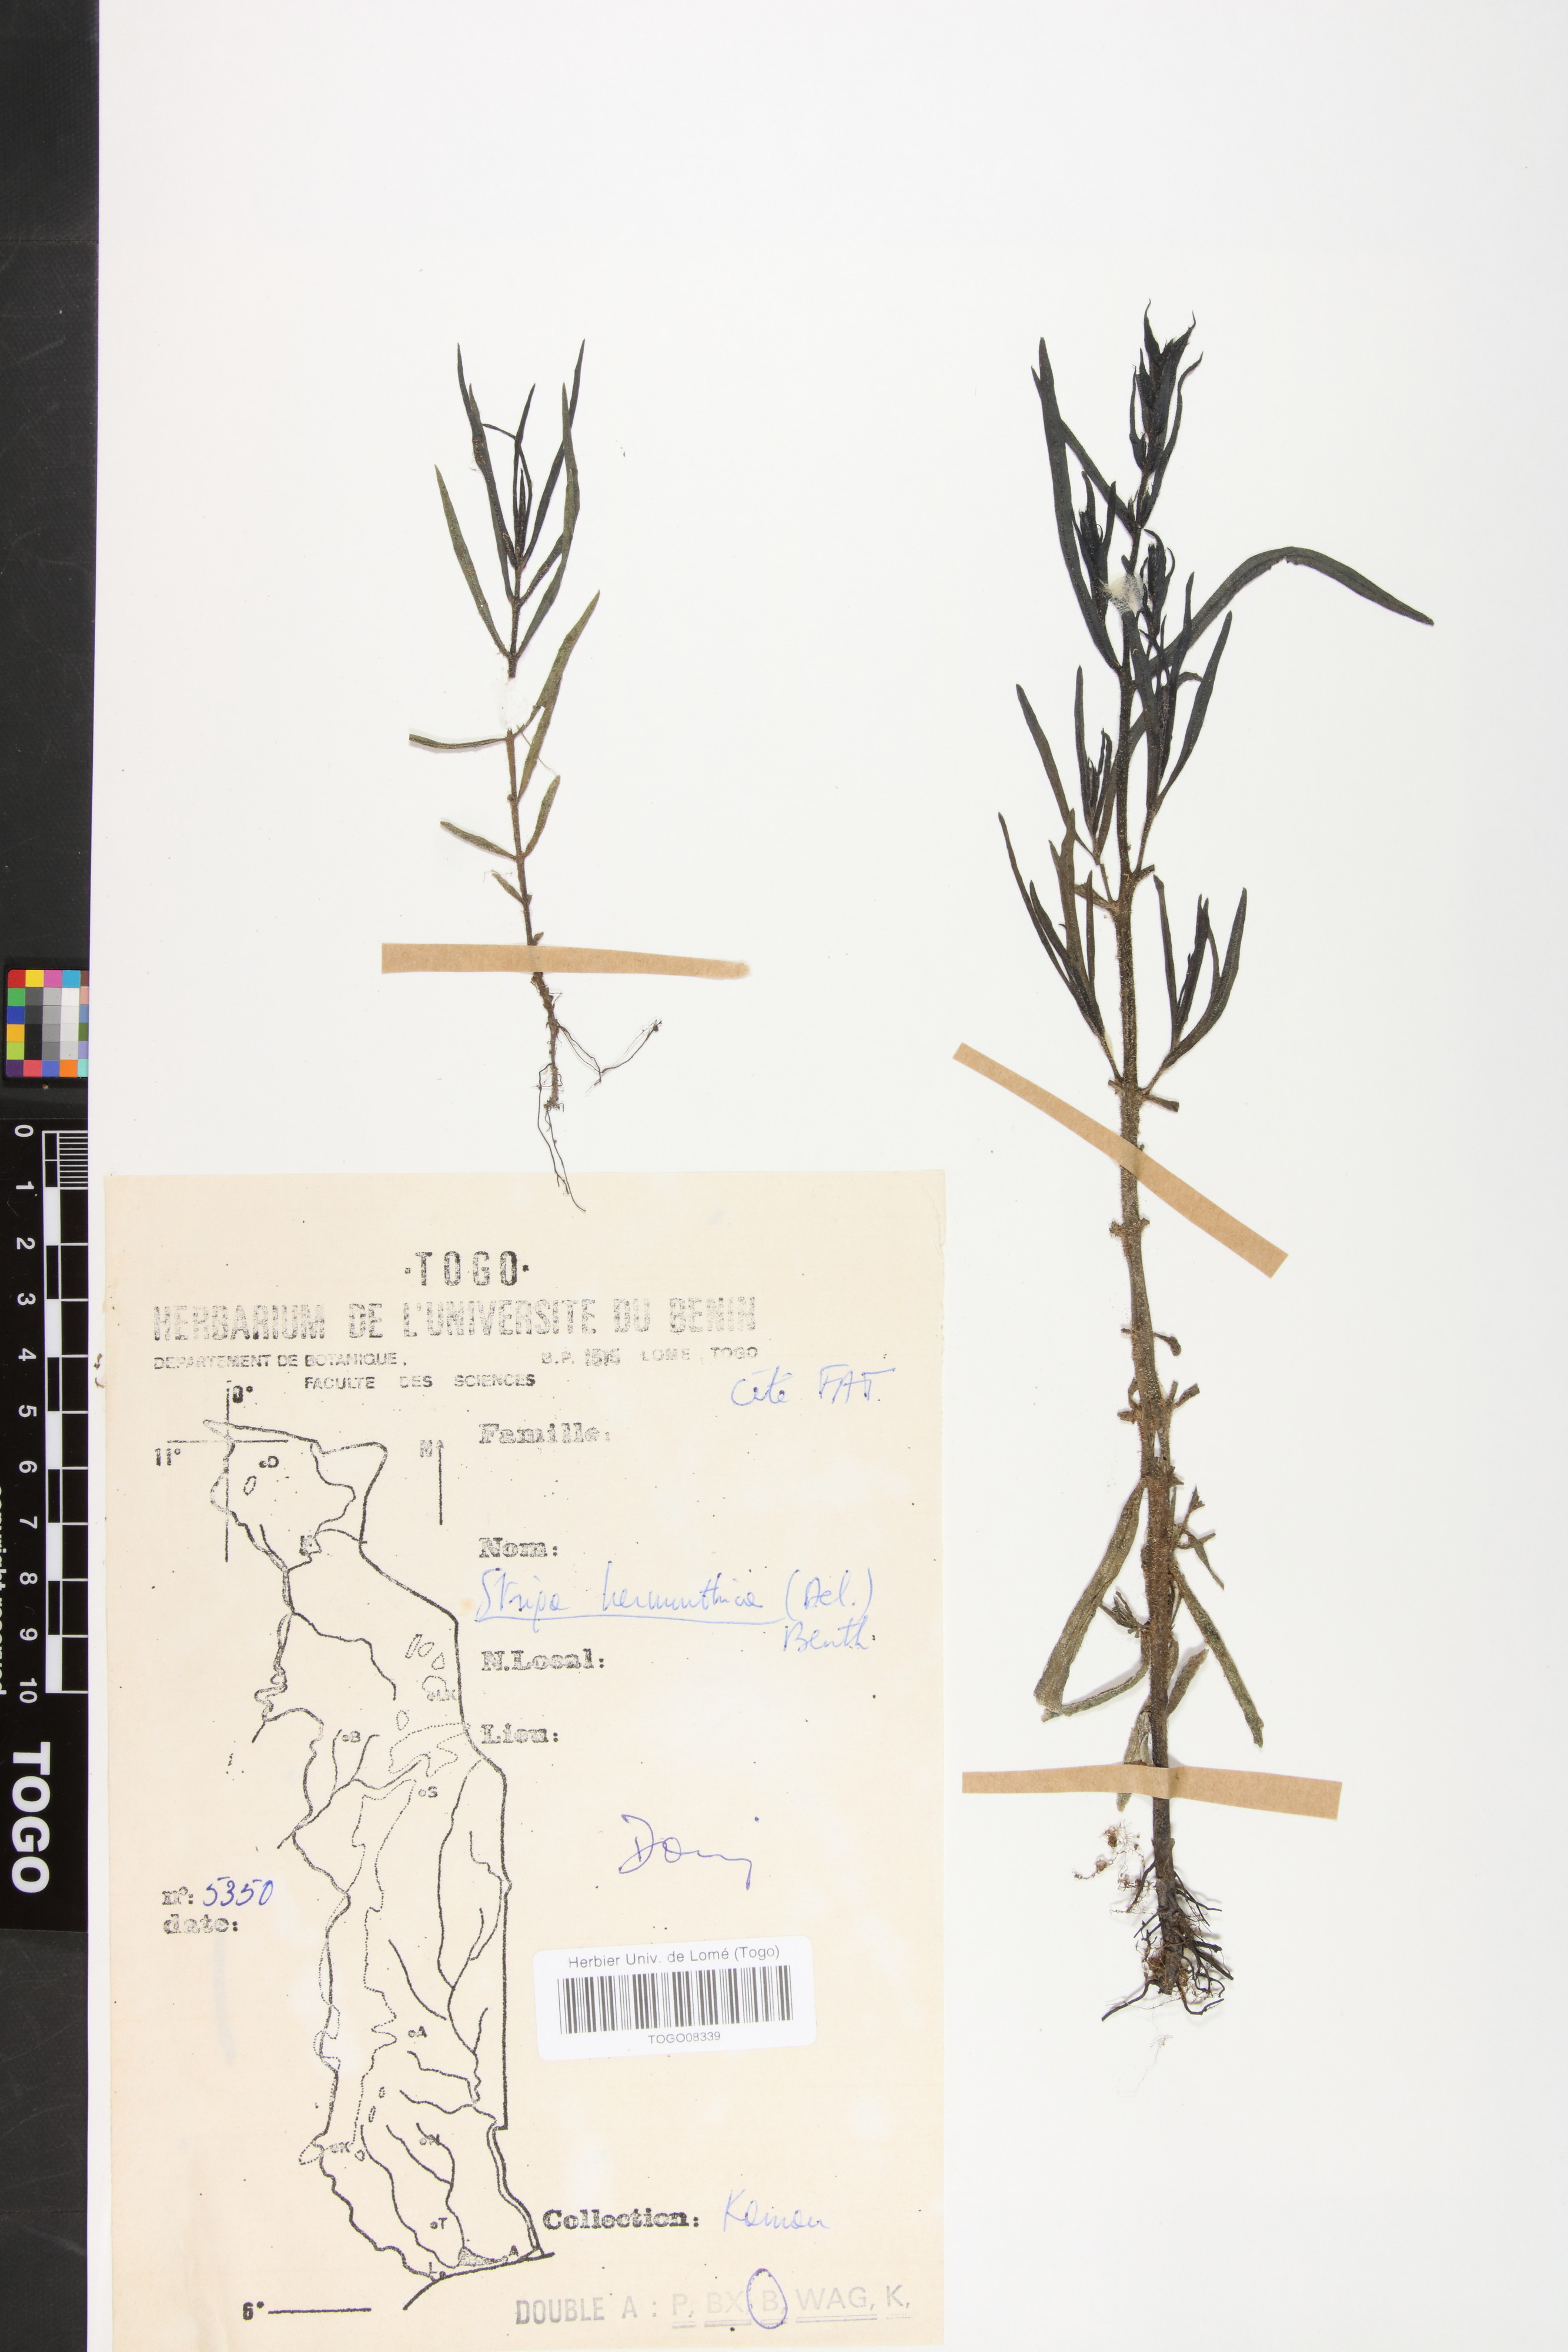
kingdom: Plantae
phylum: Tracheophyta
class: Magnoliopsida
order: Lamiales
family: Orobanchaceae
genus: Striga
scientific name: Striga hermonthica
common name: Purple witchweed
